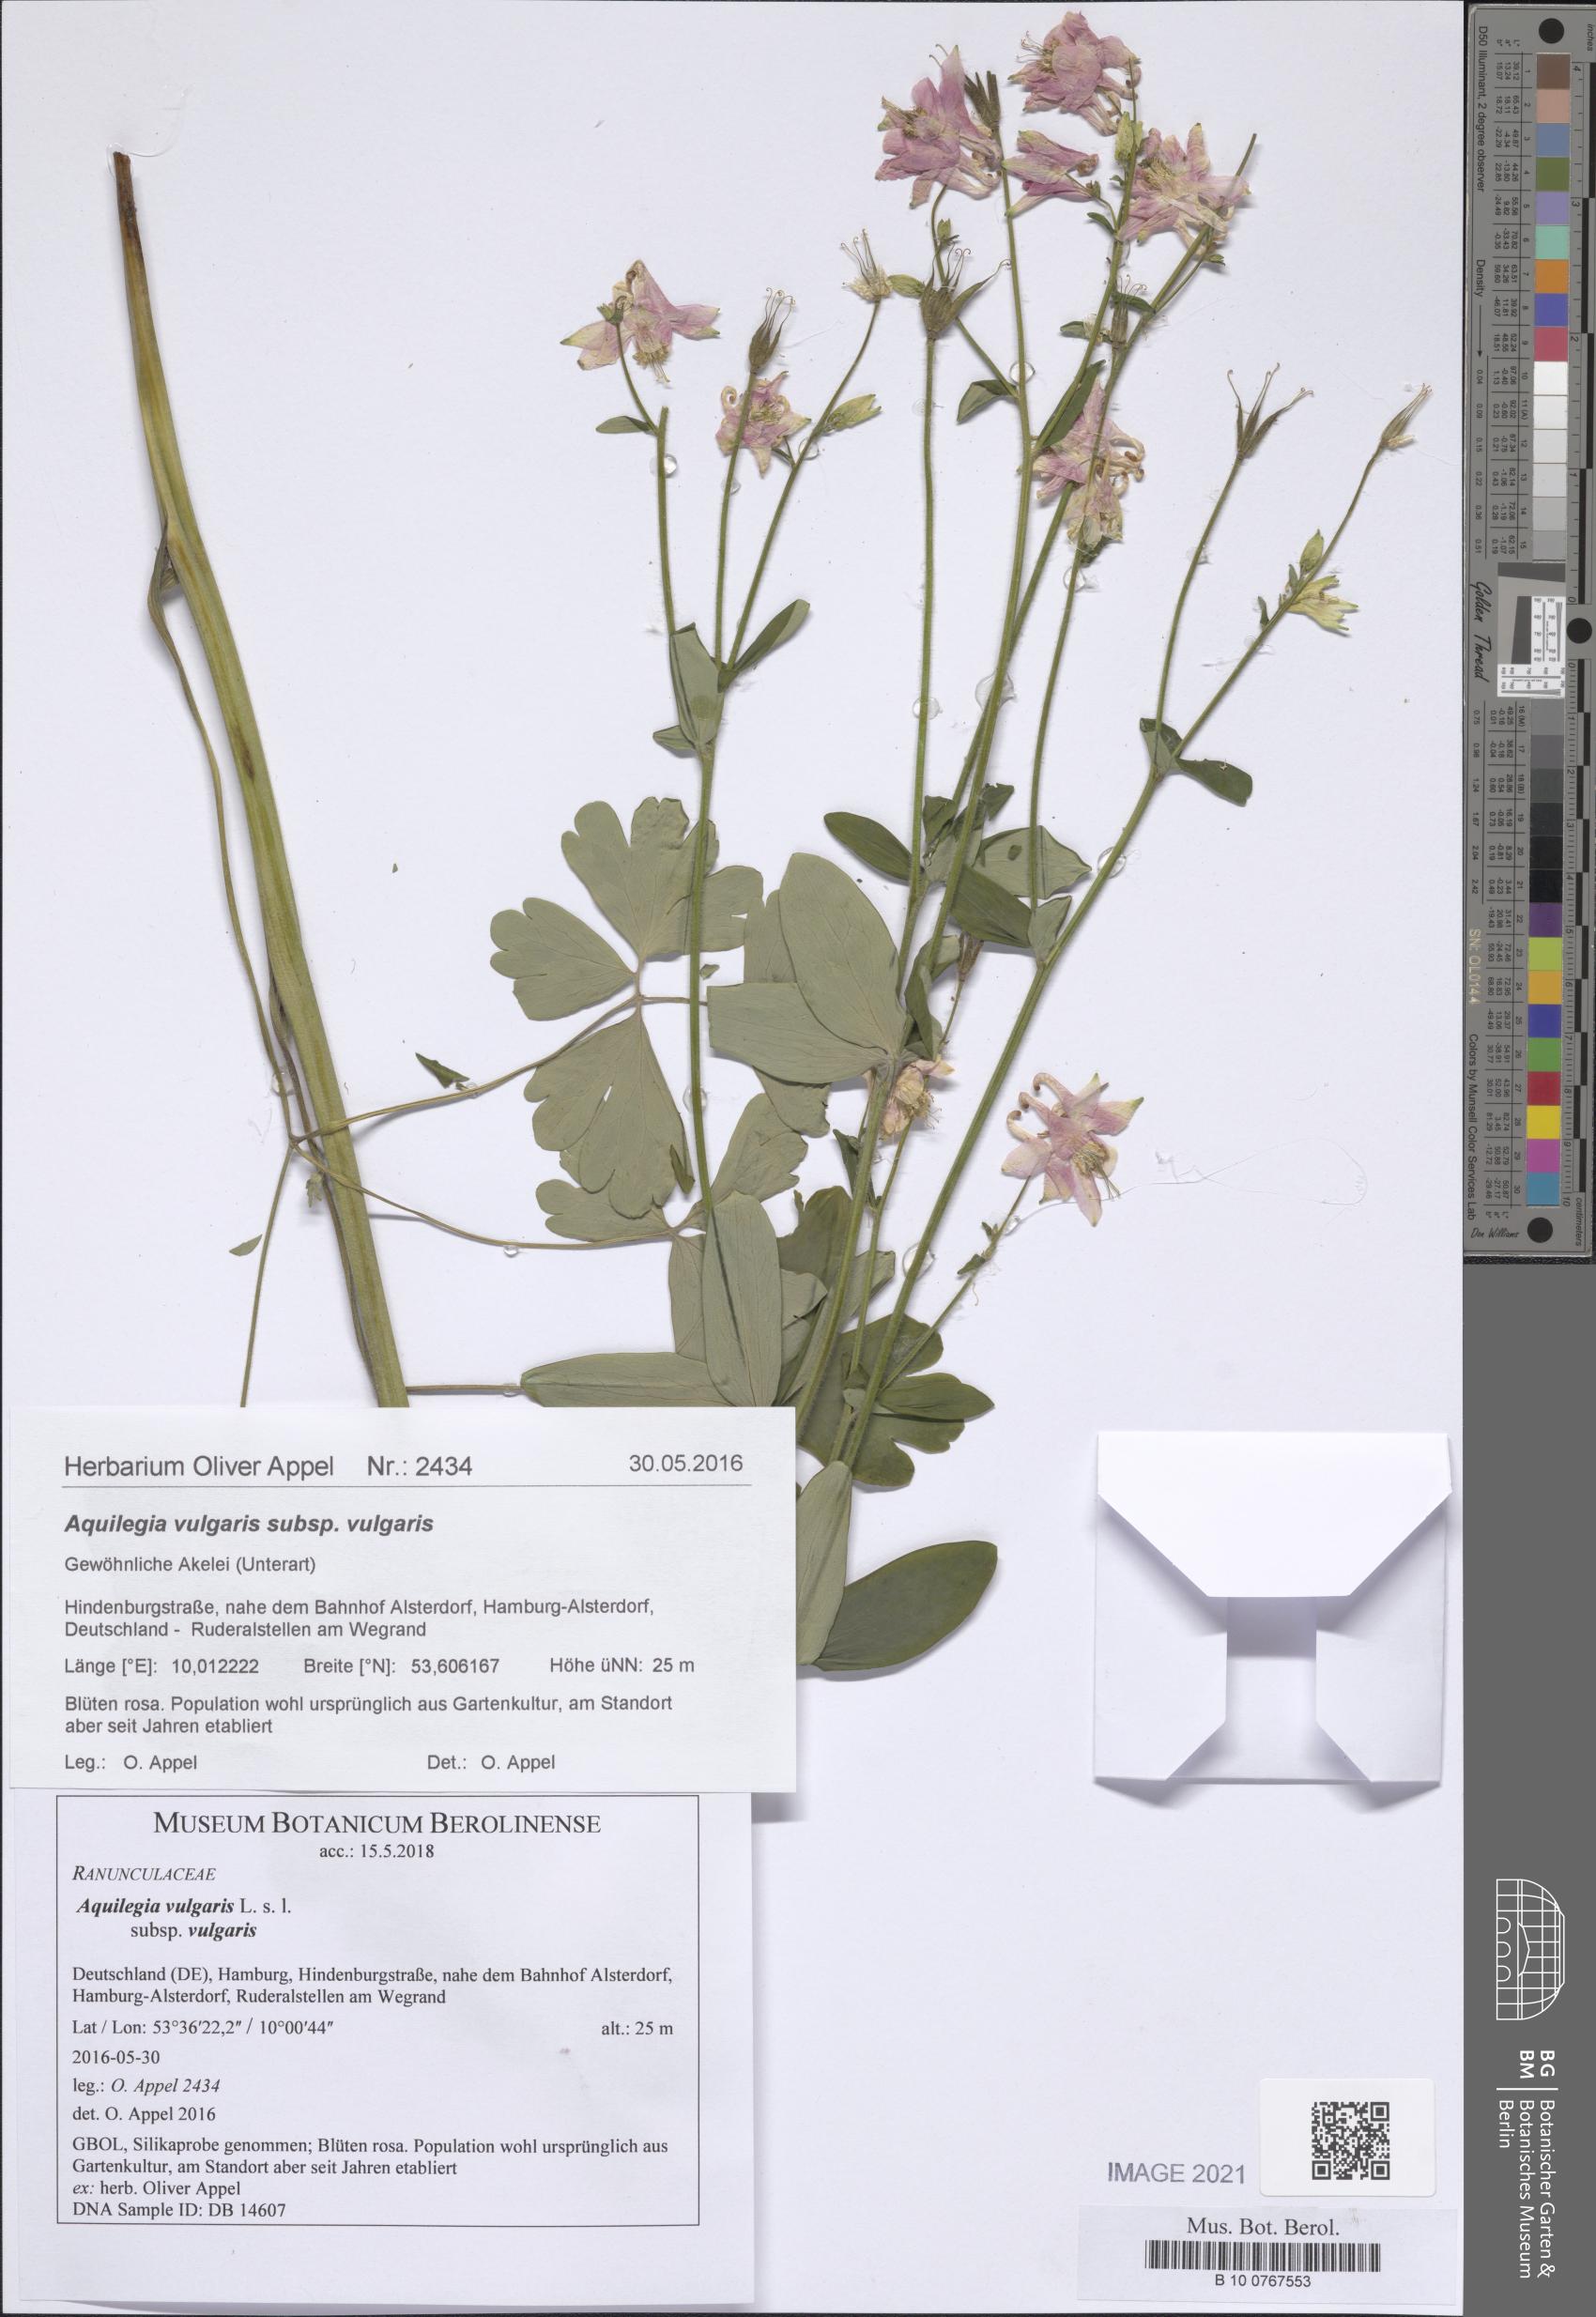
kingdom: Plantae
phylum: Tracheophyta
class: Magnoliopsida
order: Ranunculales
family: Ranunculaceae
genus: Aquilegia
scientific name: Aquilegia vulgaris
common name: Columbine
